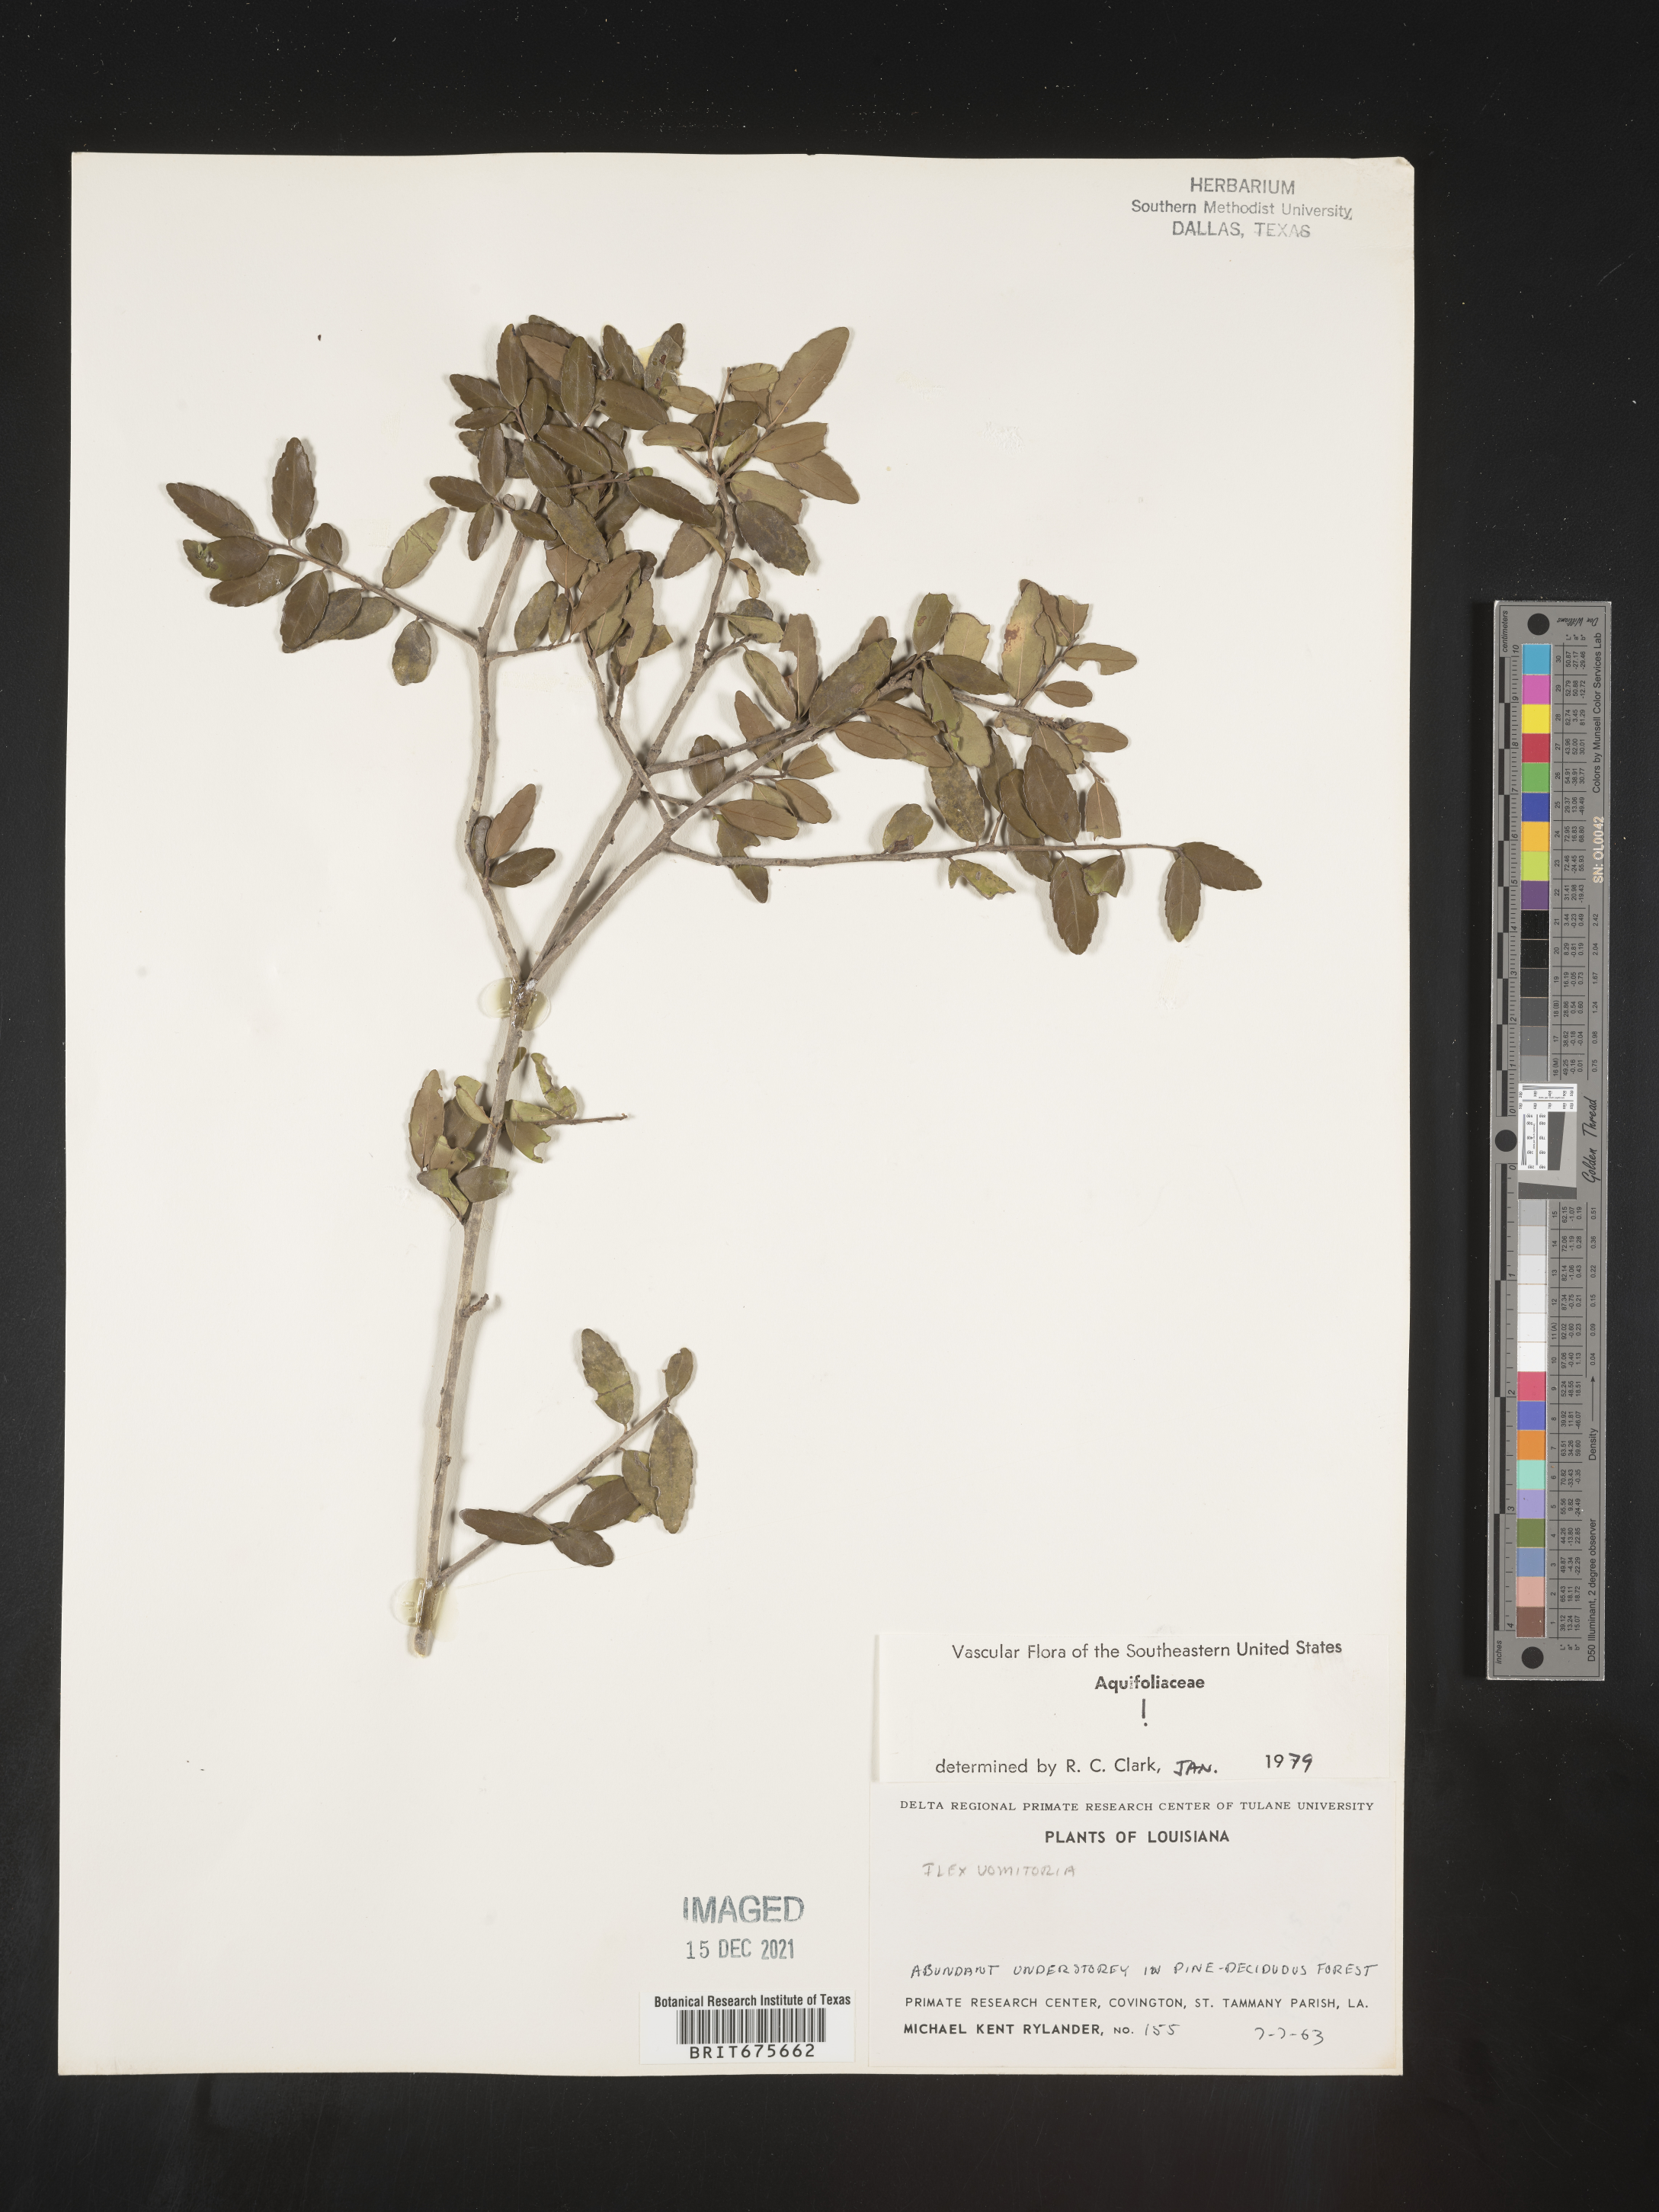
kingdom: Plantae
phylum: Tracheophyta
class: Magnoliopsida
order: Aquifoliales
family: Aquifoliaceae
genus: Ilex
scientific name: Ilex vomitoria
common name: Yaupon holly
